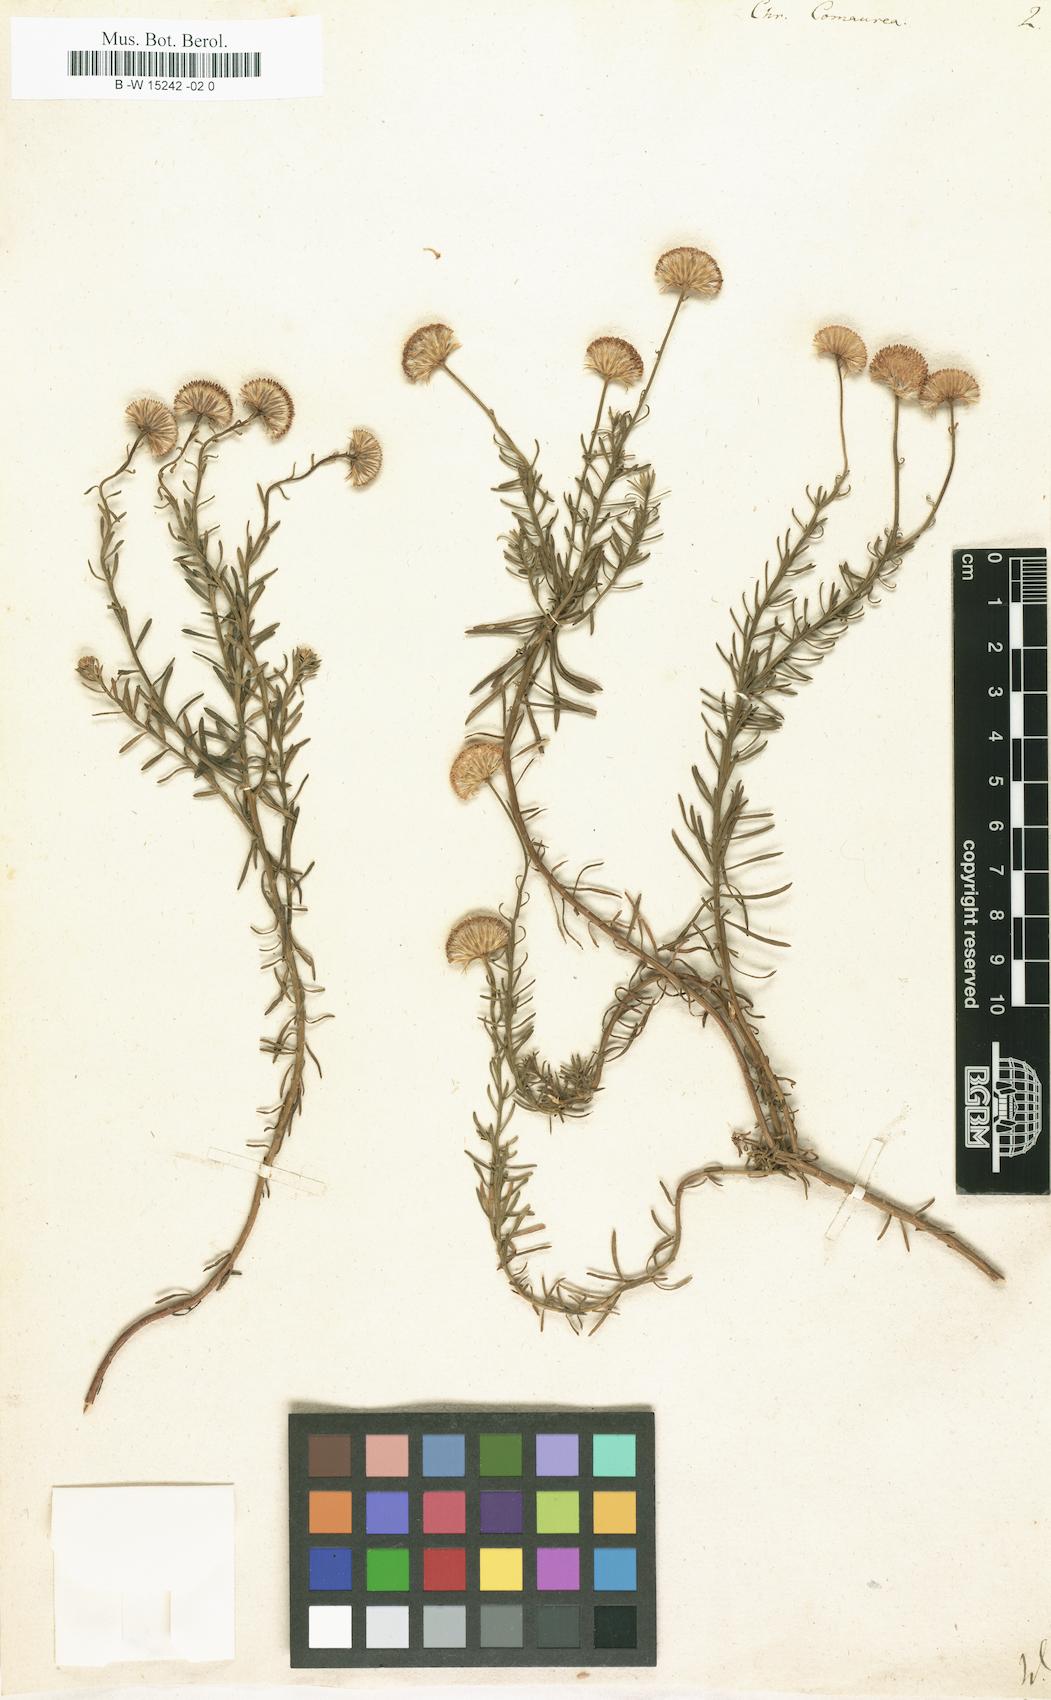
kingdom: Plantae
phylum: Tracheophyta
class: Magnoliopsida
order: Asterales
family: Asteraceae
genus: Chrysocoma
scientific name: Chrysocoma cernua
